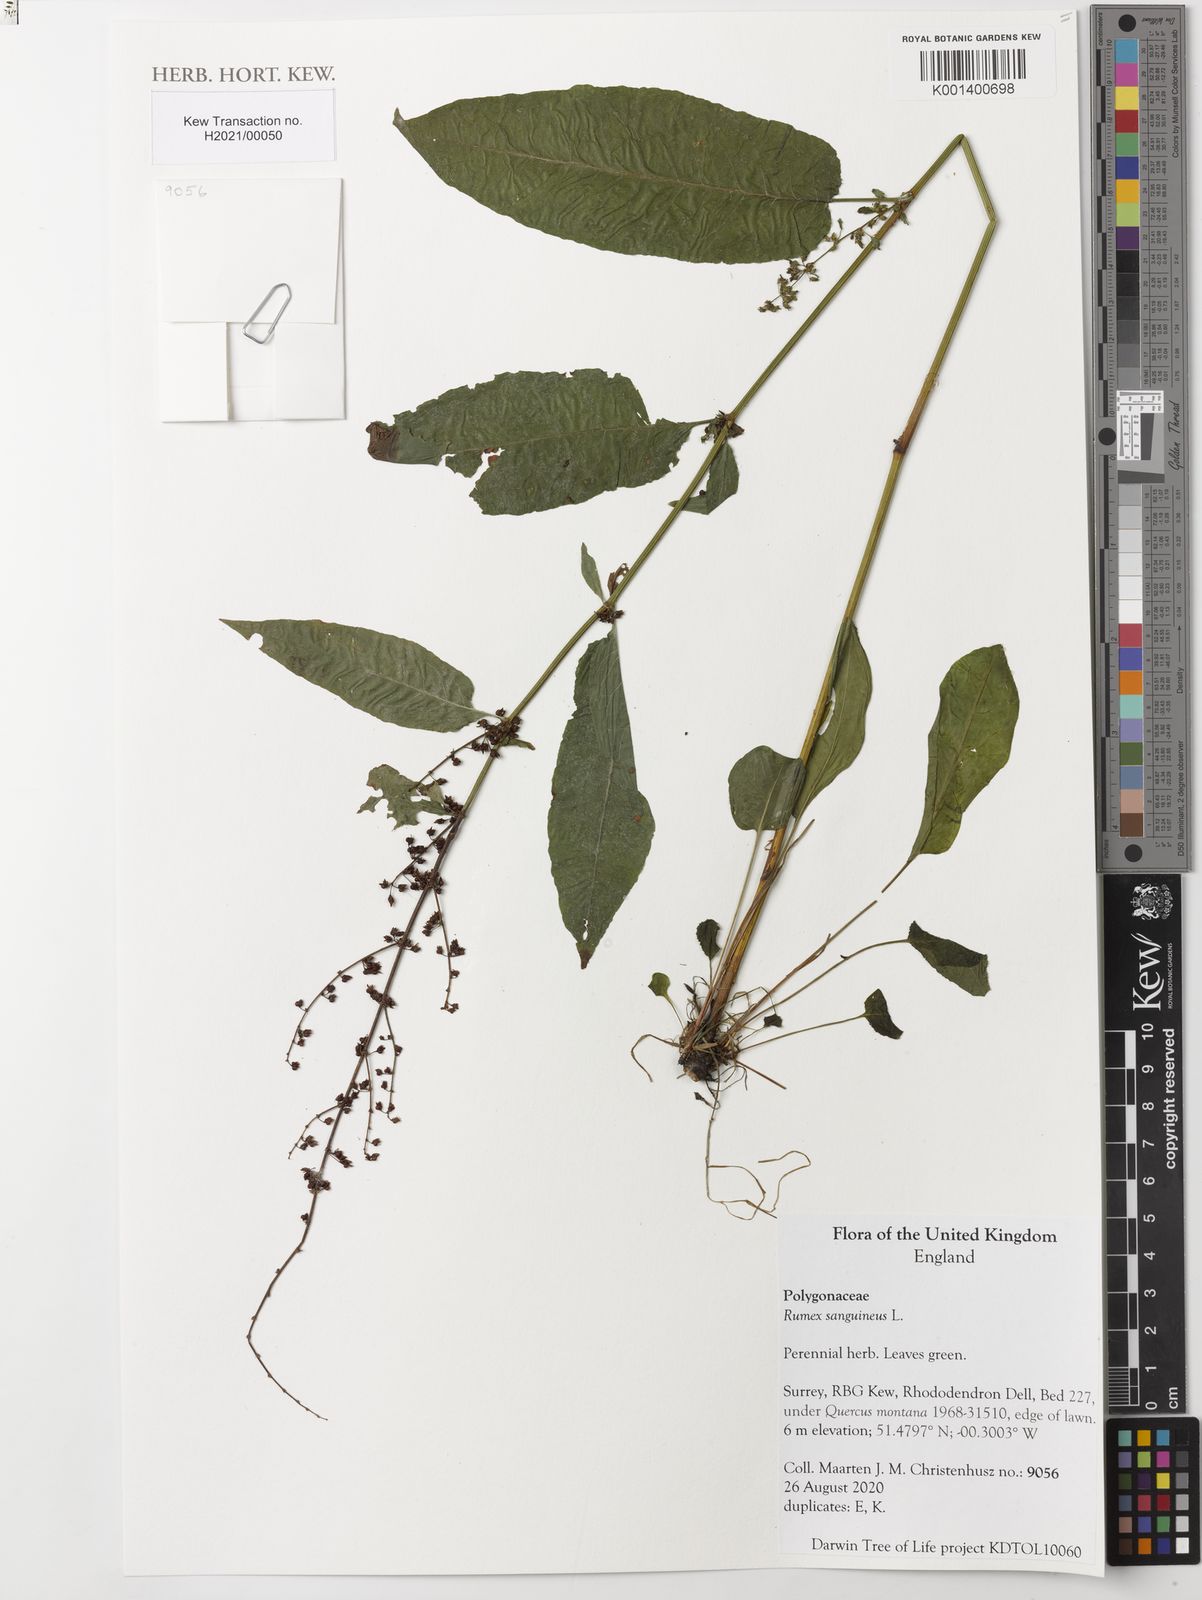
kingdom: Plantae
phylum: Tracheophyta
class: Magnoliopsida
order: Caryophyllales
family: Polygonaceae
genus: Rumex
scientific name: Rumex sanguineus
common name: Wood dock
